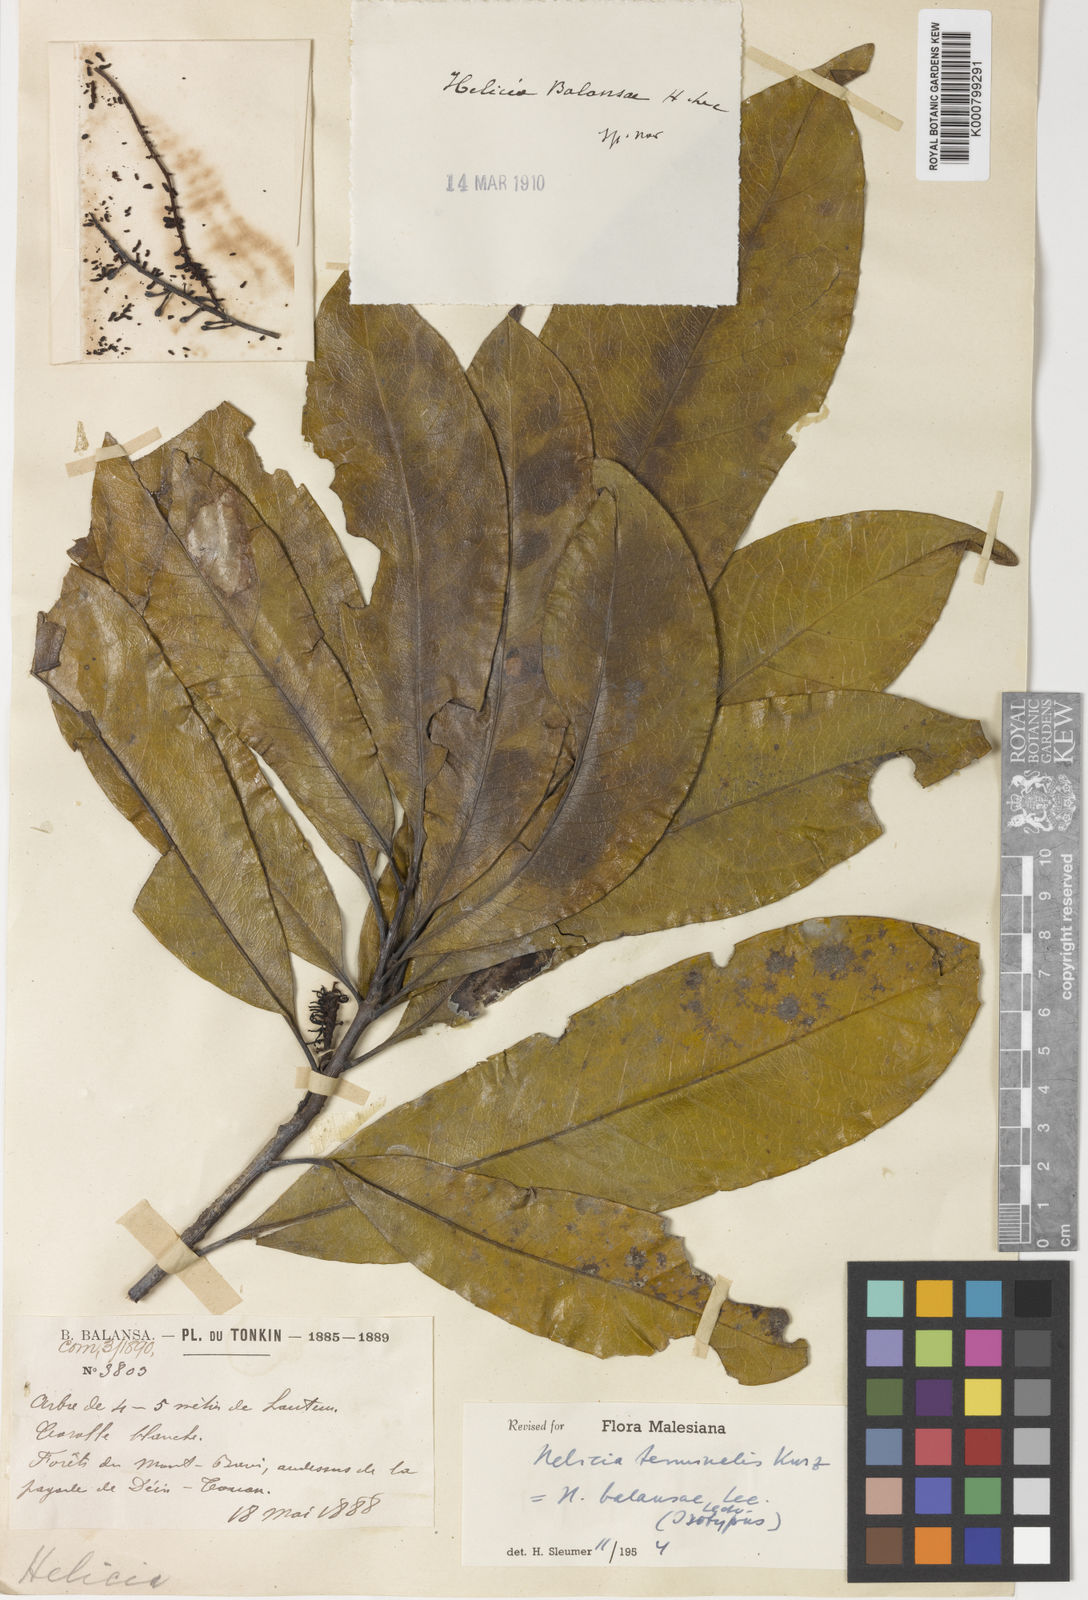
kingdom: Plantae
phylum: Tracheophyta
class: Magnoliopsida
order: Proteales
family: Proteaceae
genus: Heliciopsis
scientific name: Heliciopsis terminalis
